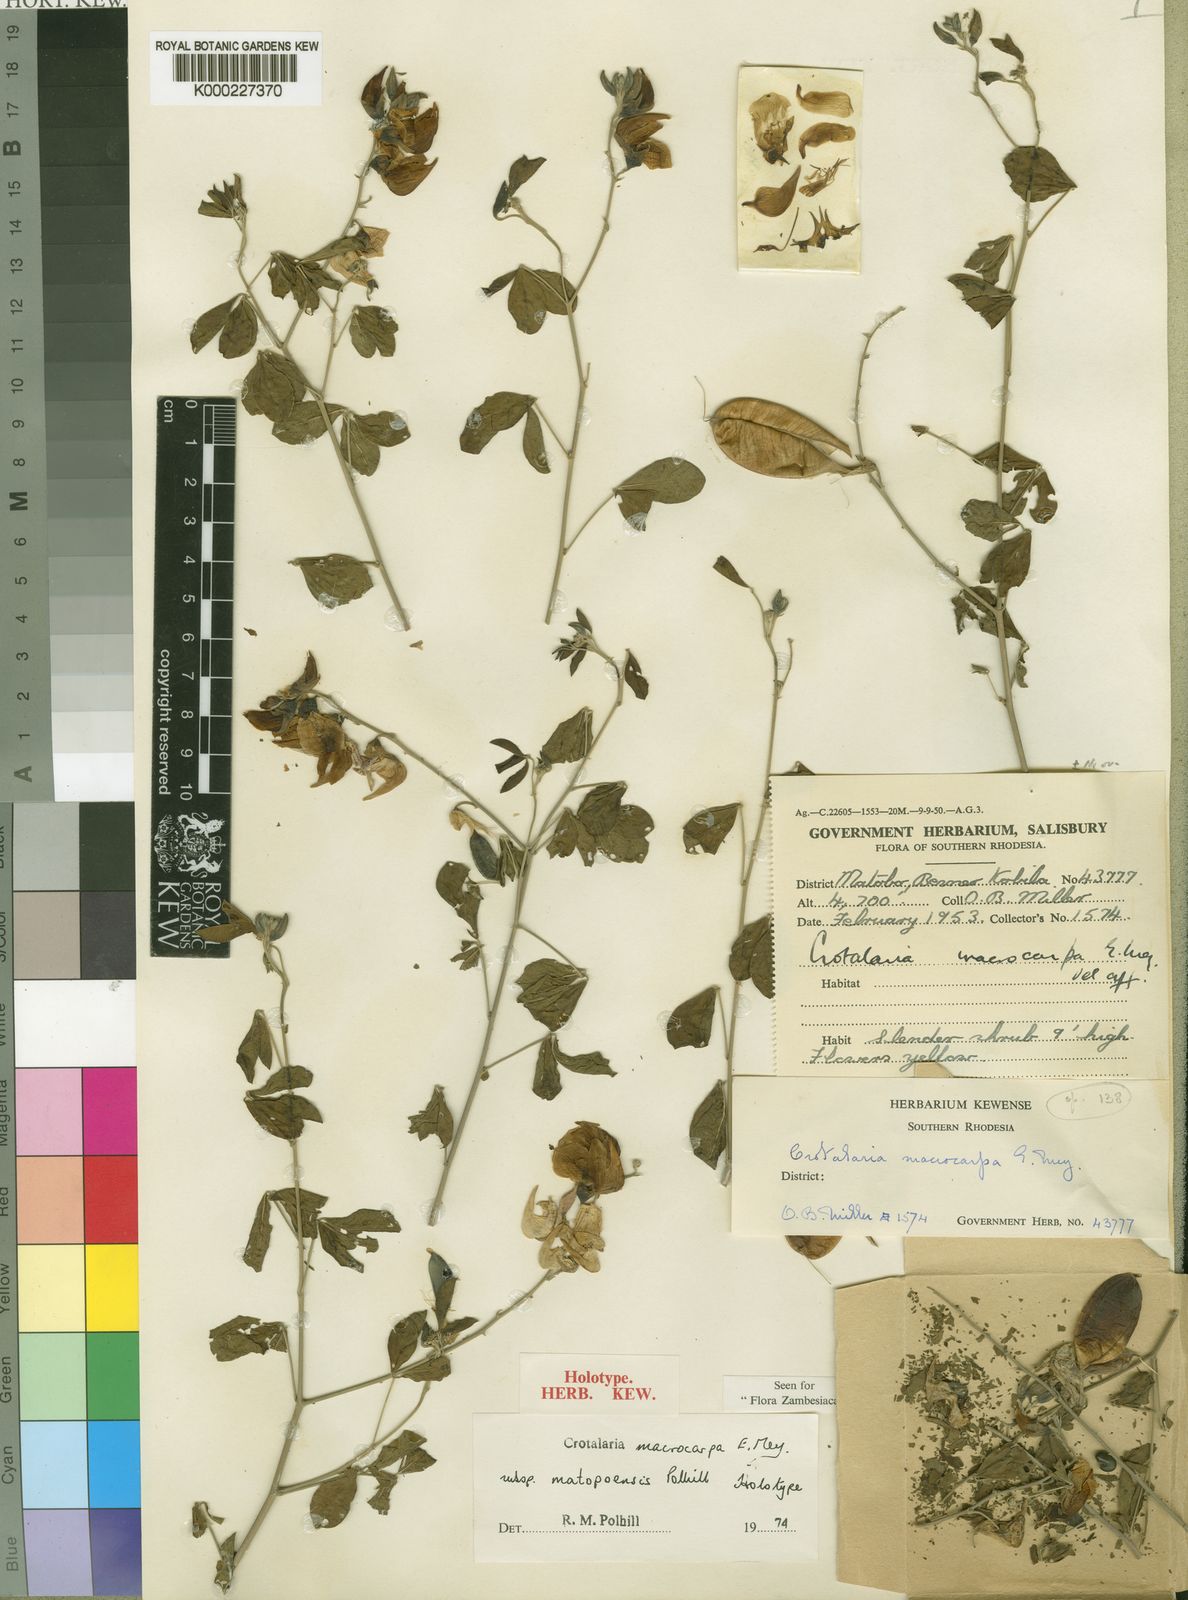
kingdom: Plantae
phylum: Tracheophyta
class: Magnoliopsida
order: Fabales
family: Fabaceae
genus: Crotalaria
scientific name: Crotalaria macrocarpa
